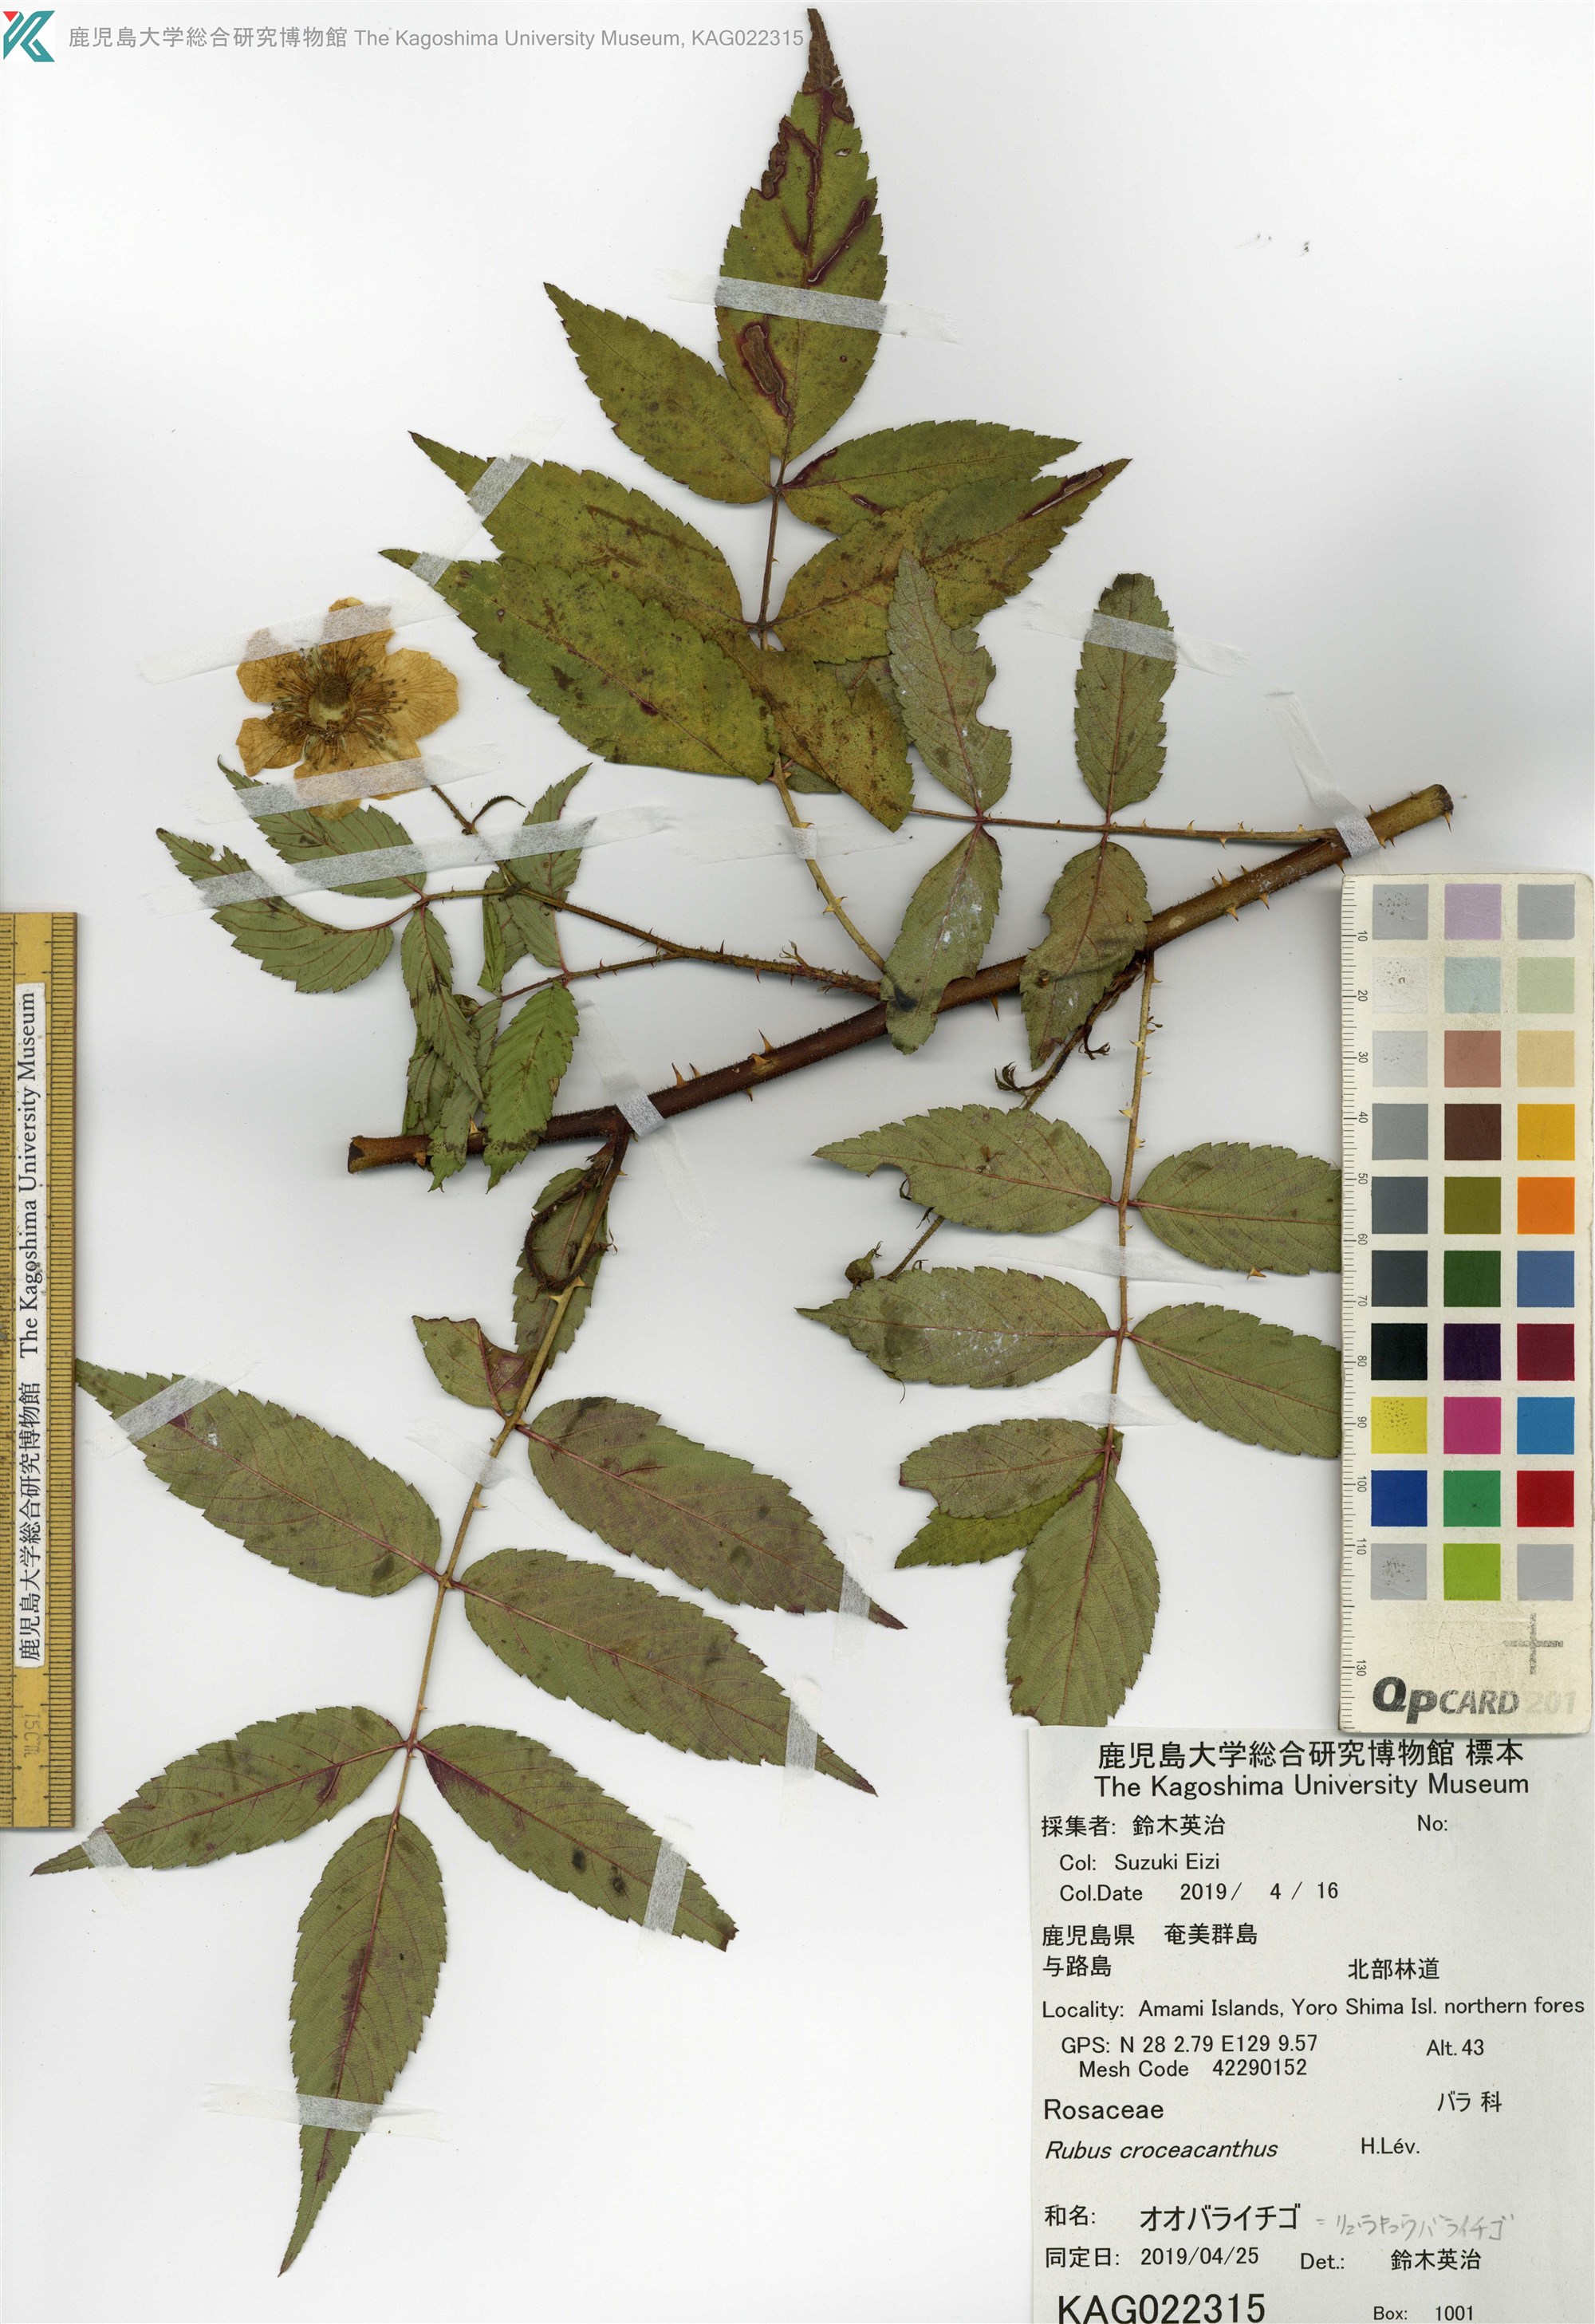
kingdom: Plantae
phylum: Tracheophyta
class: Magnoliopsida
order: Rosales
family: Rosaceae
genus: Rubus
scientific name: Rubus okinawensis
